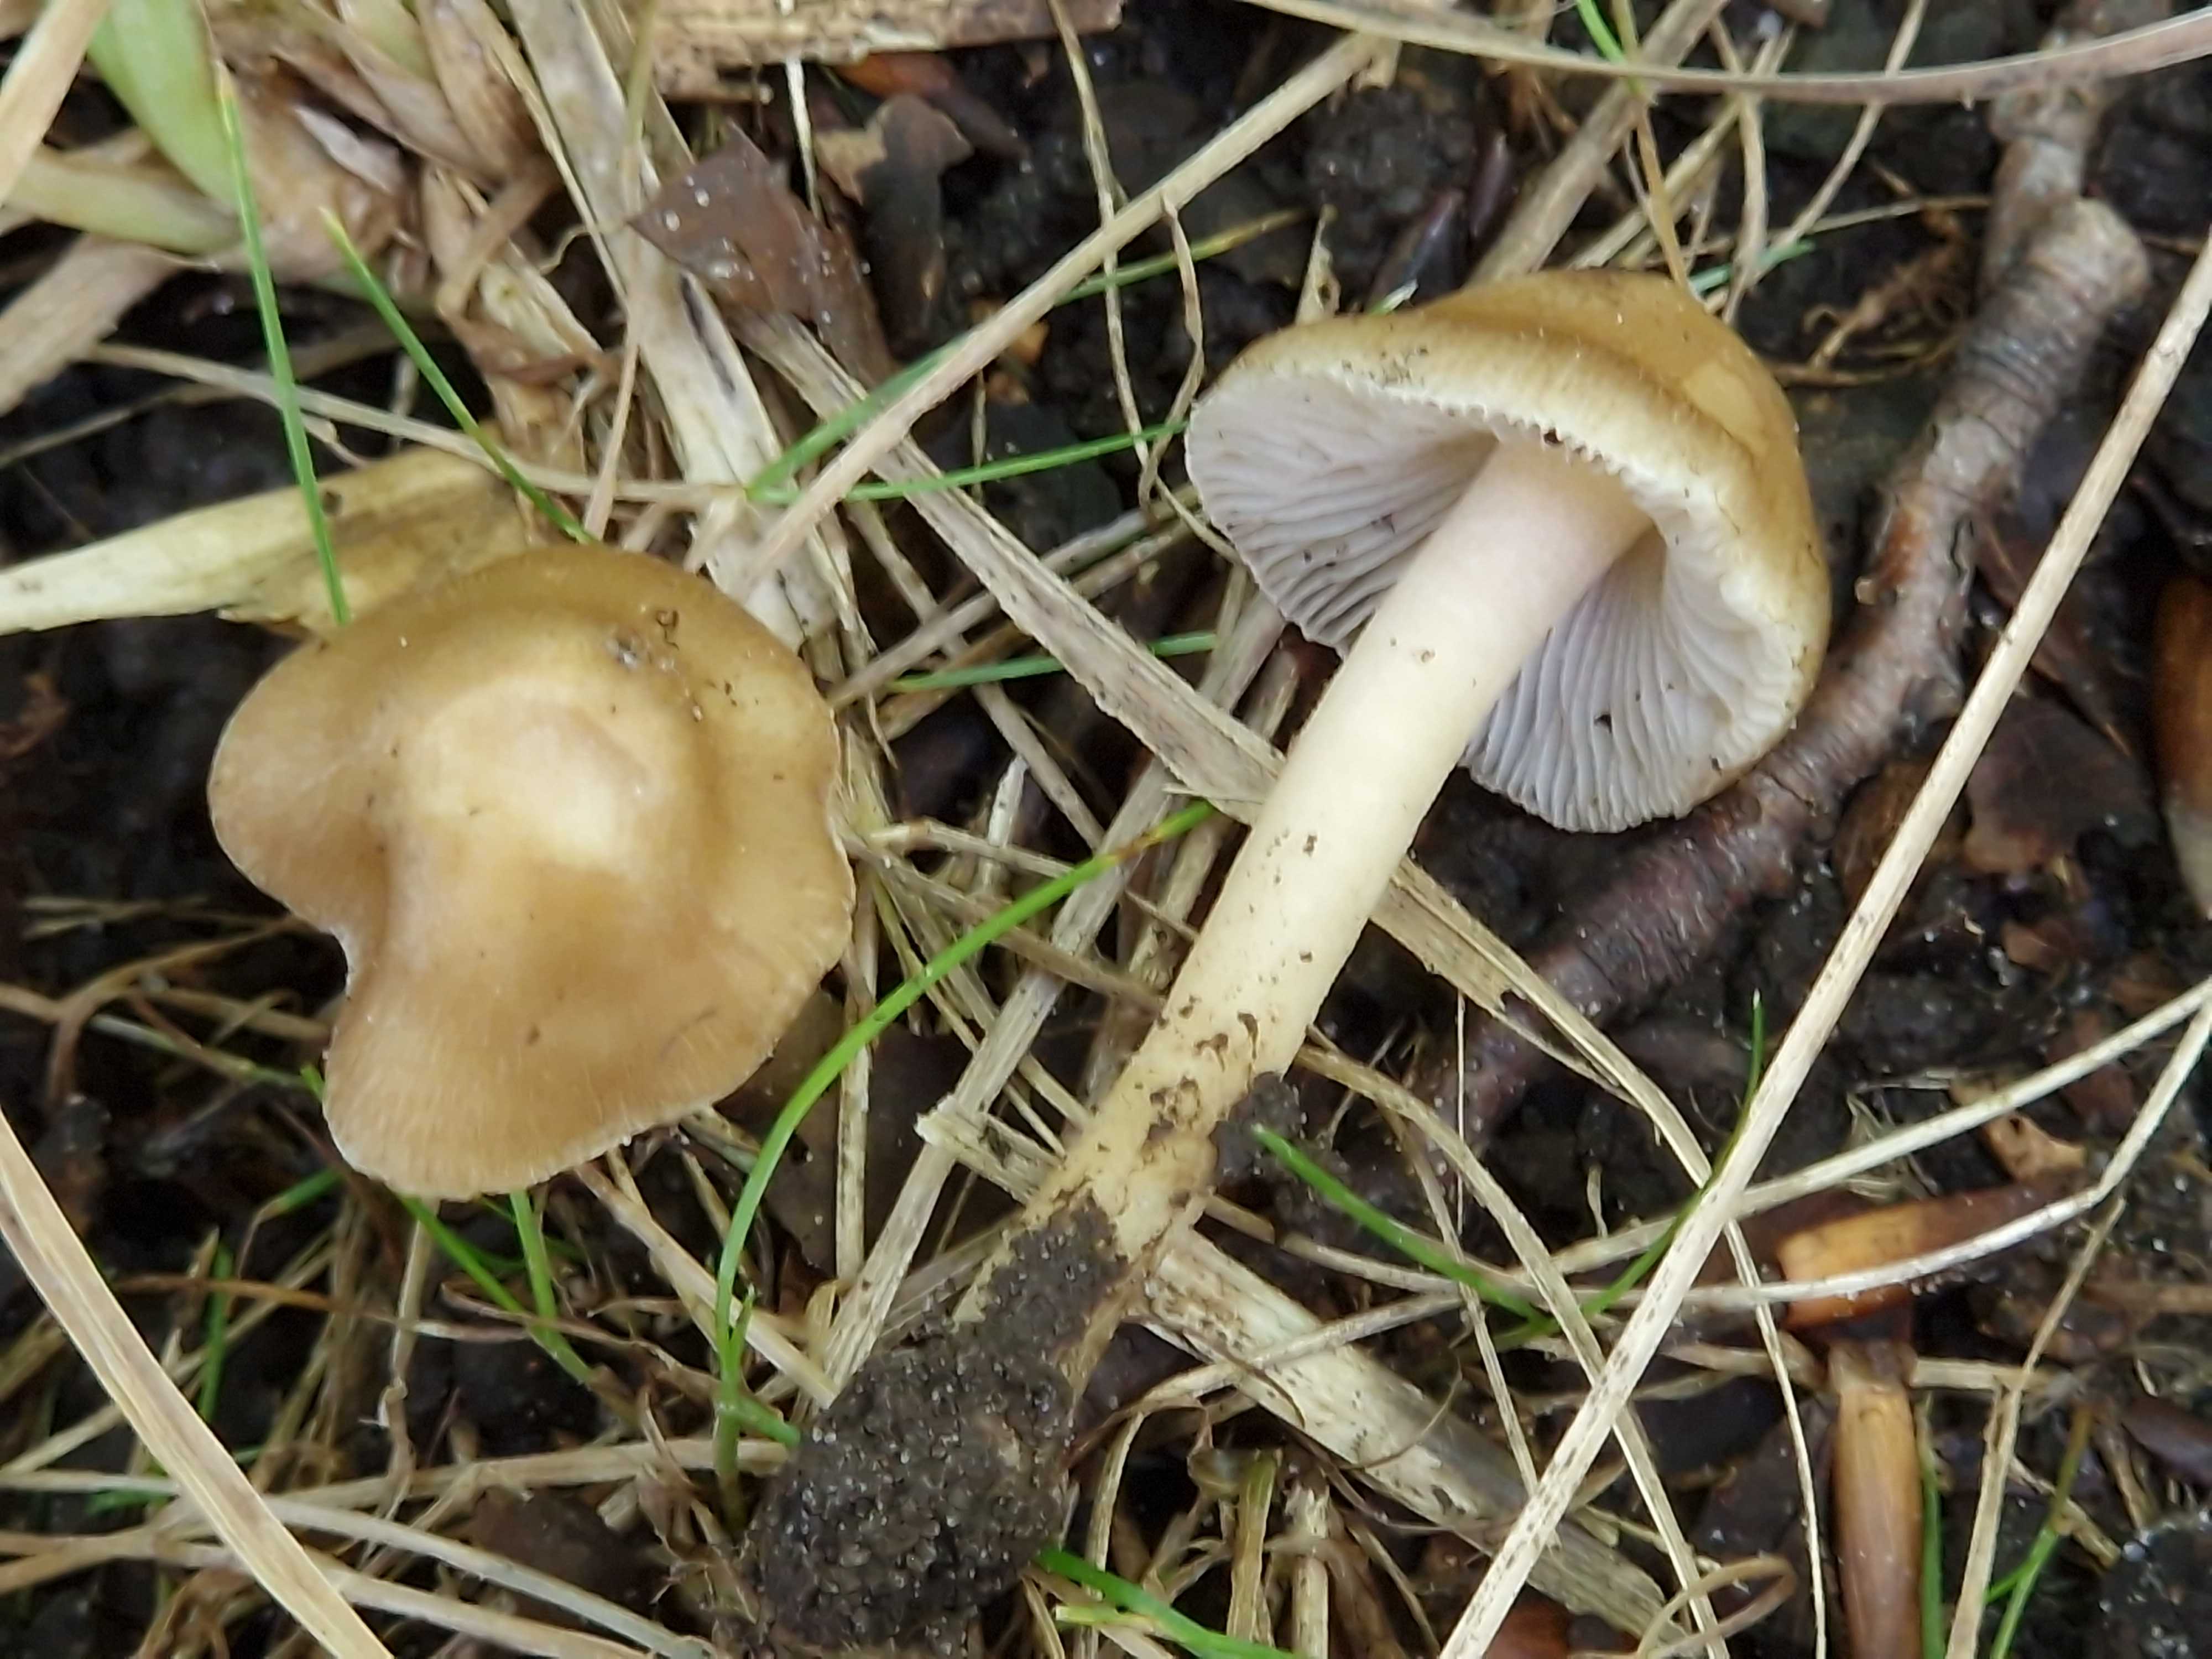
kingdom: Fungi
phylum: Basidiomycota
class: Agaricomycetes
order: Agaricales
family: Inocybaceae
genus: Inocybe
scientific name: Inocybe tabacina
